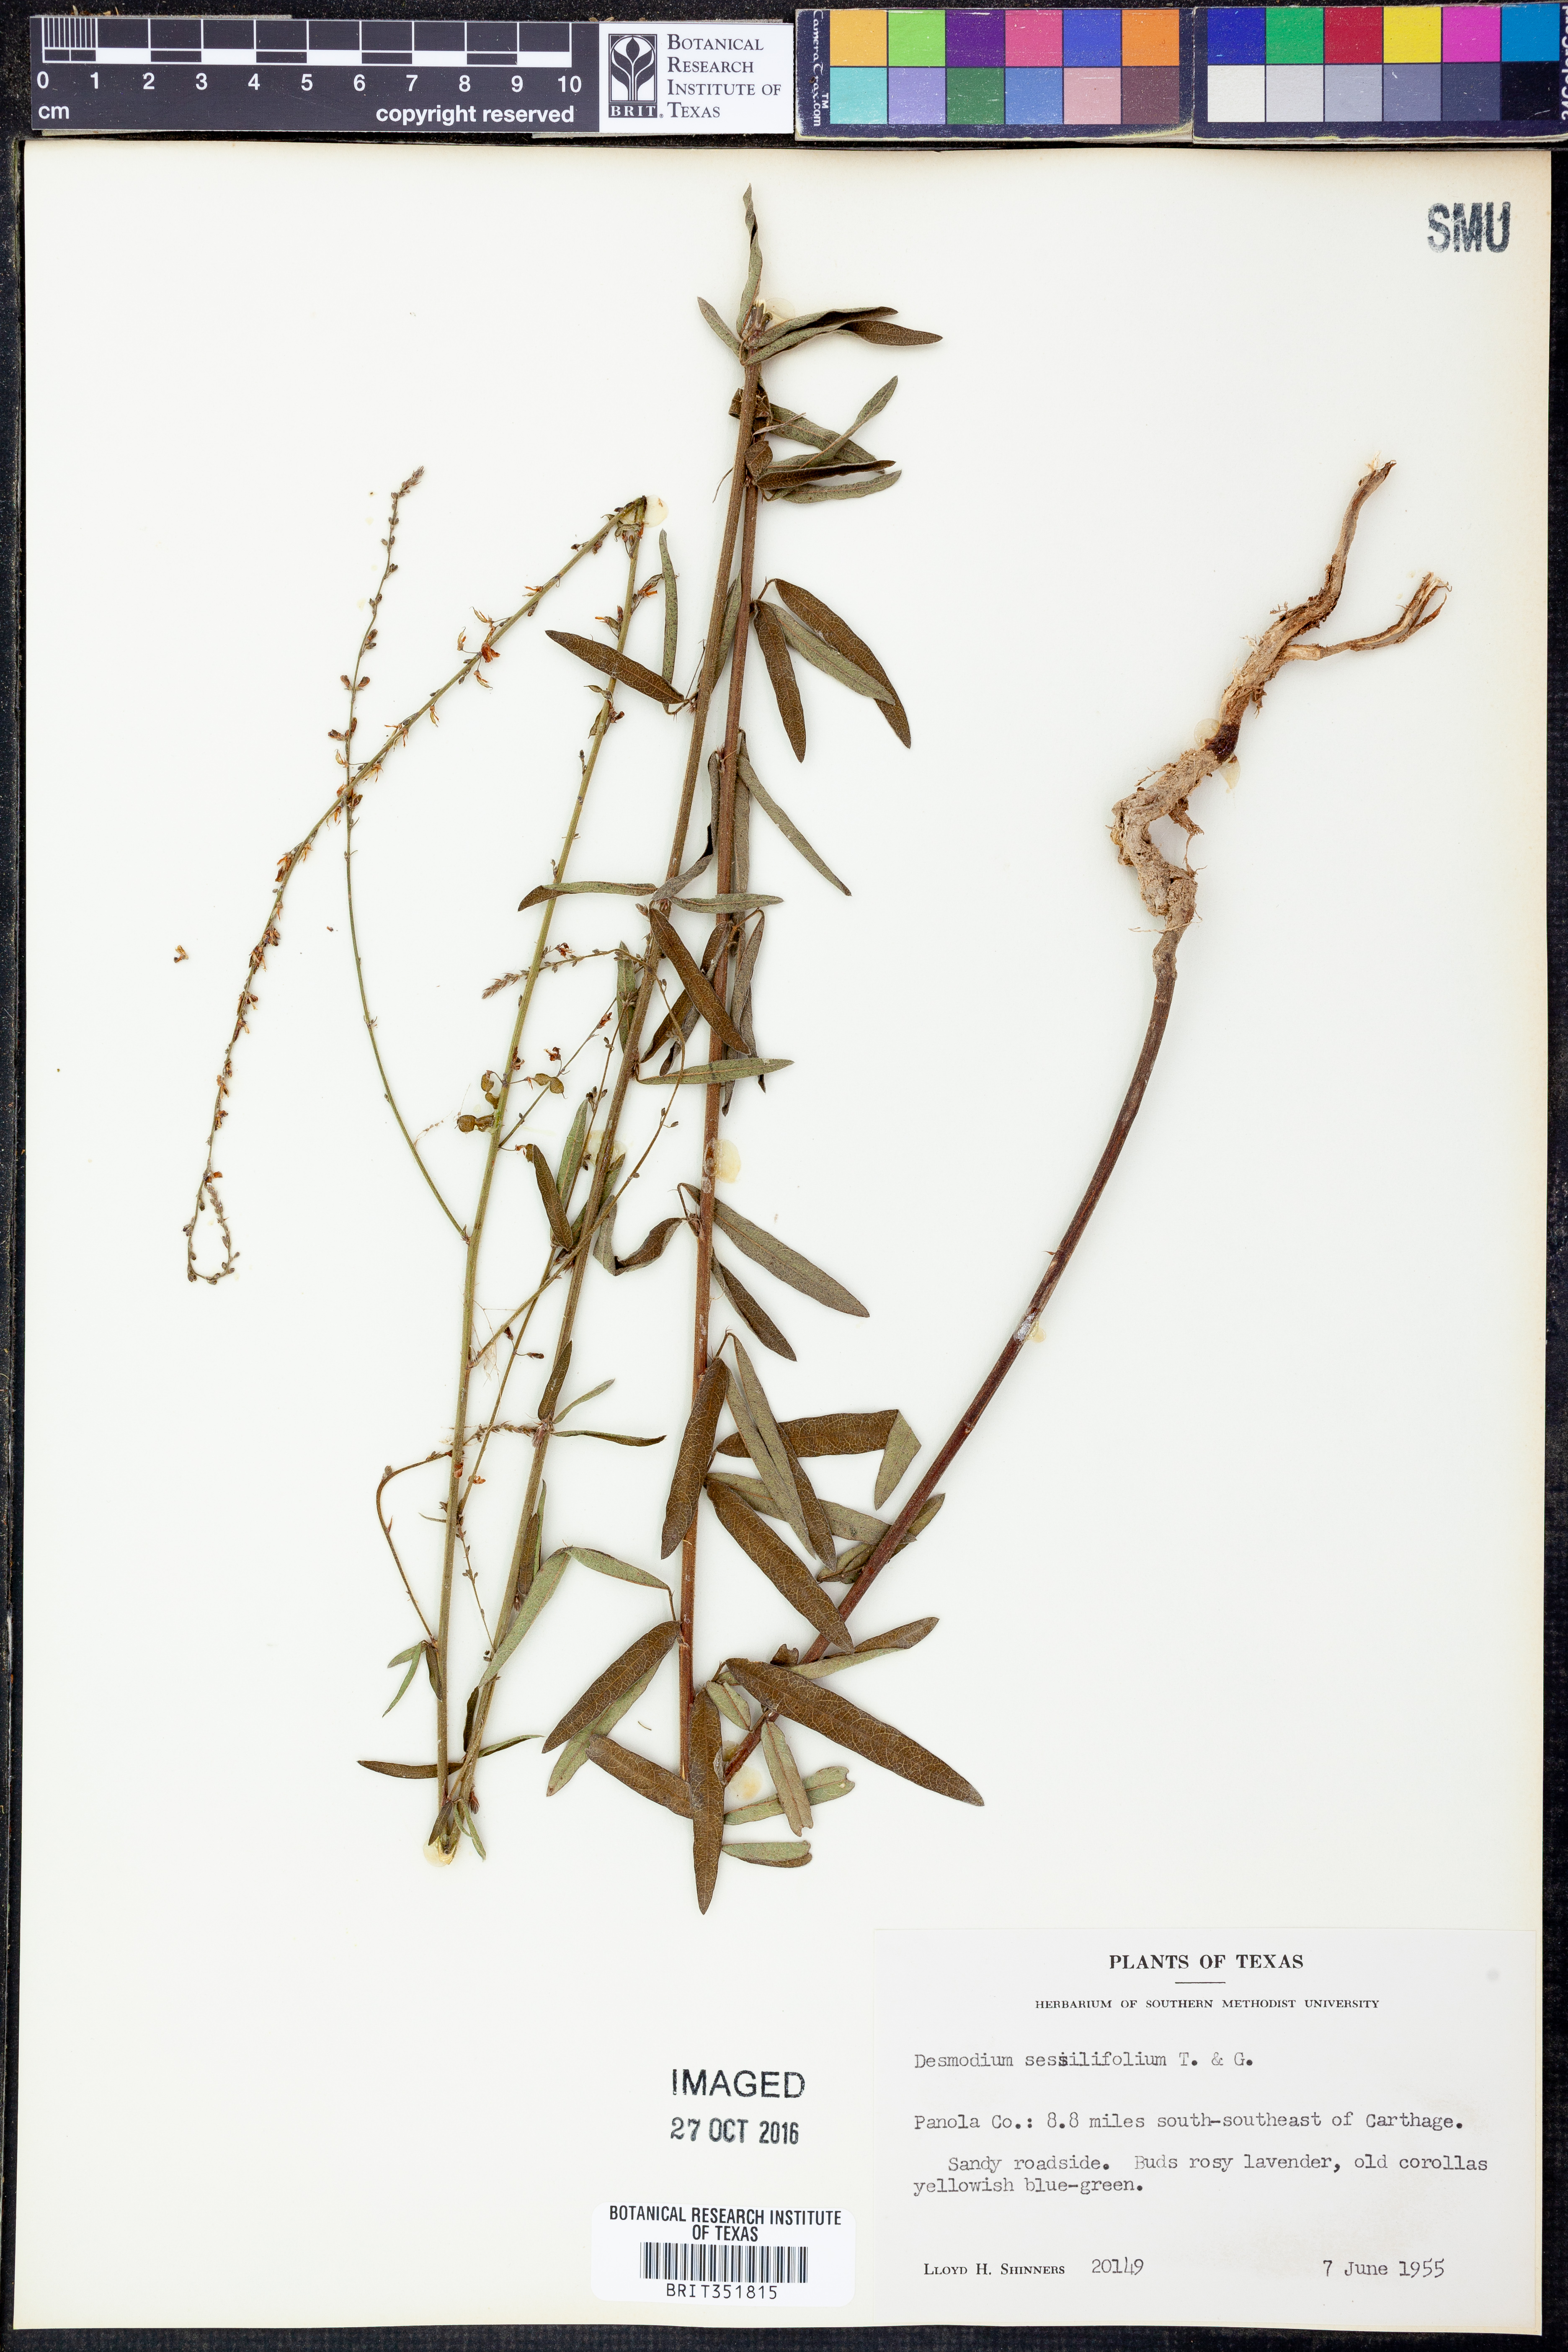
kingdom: Plantae
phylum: Tracheophyta
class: Magnoliopsida
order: Fabales
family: Fabaceae
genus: Desmodium
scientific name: Desmodium sessilifolium
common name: Sessile tick-clover
